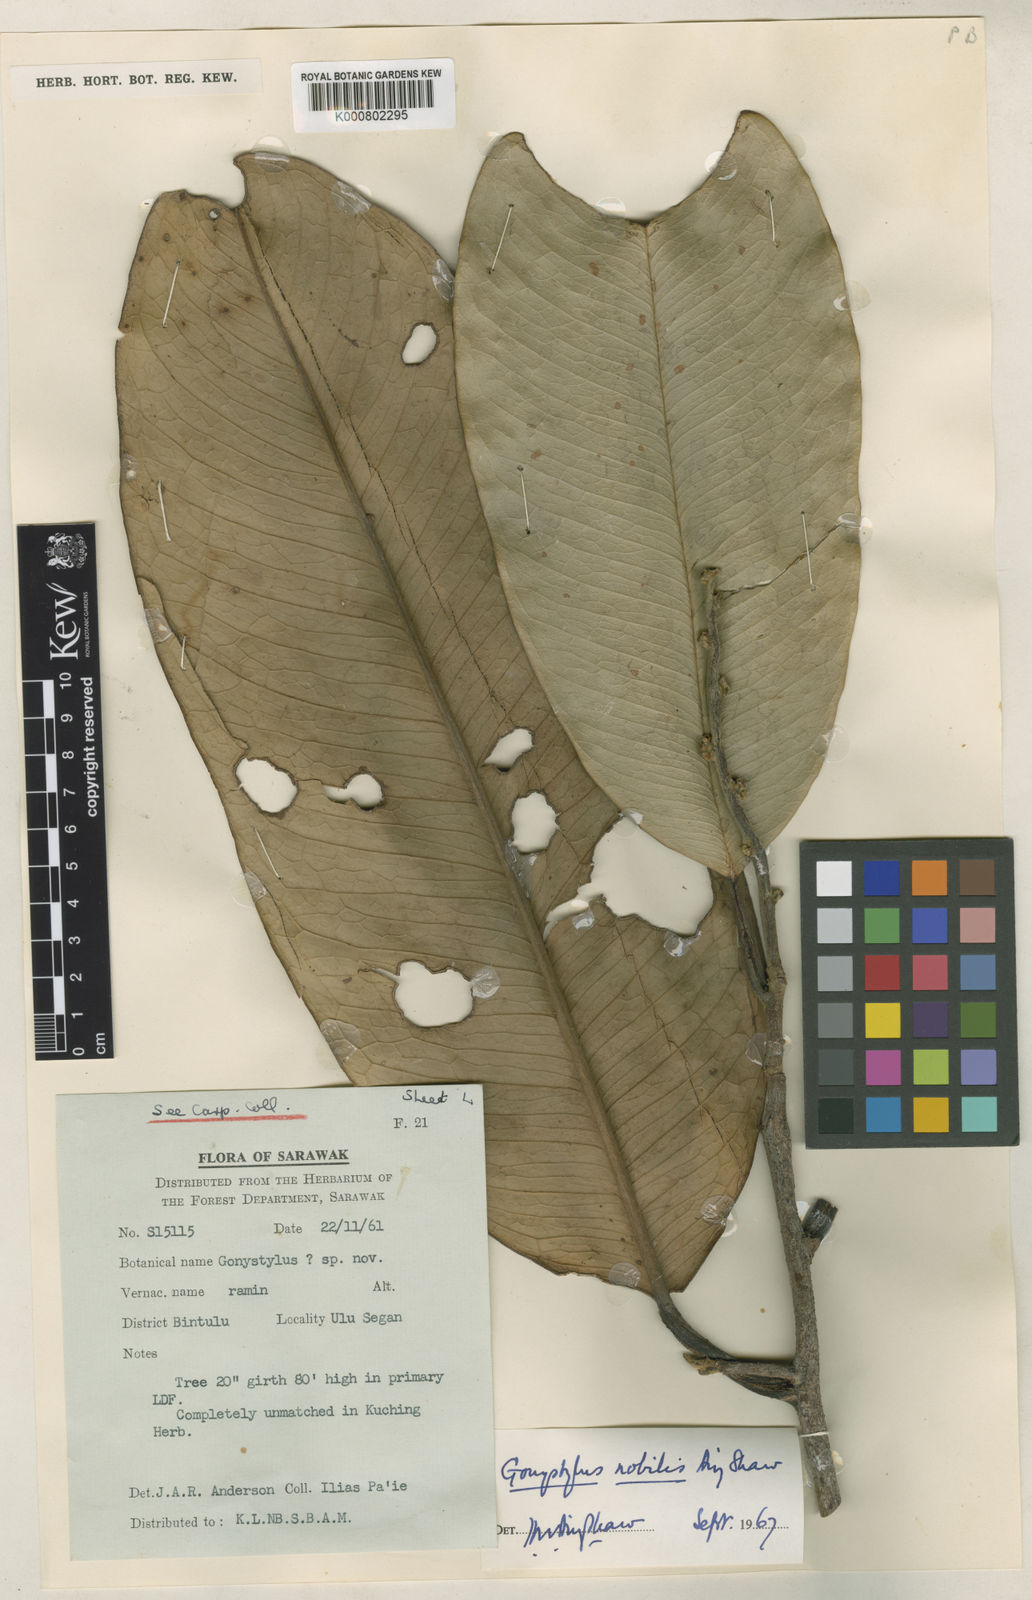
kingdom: Plantae
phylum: Tracheophyta
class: Magnoliopsida
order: Malvales
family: Thymelaeaceae
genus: Gonystylus
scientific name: Gonystylus nobilis
